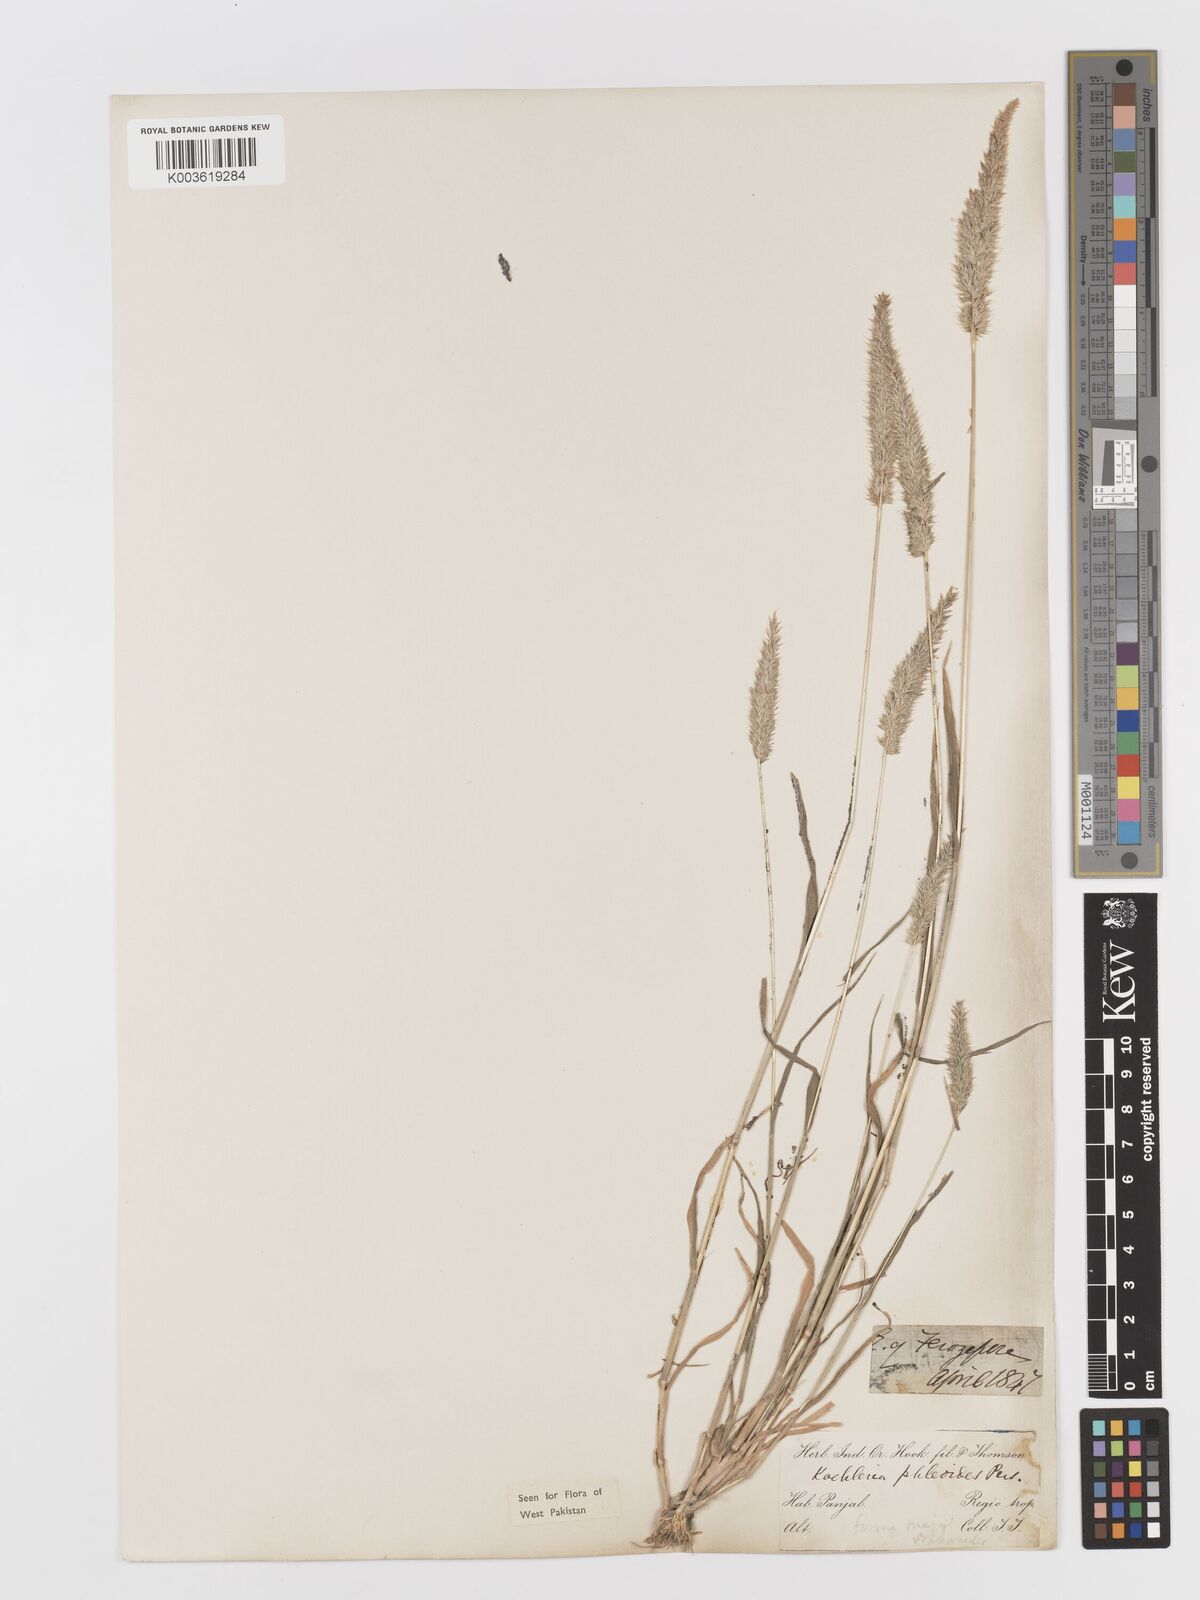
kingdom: Plantae
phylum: Tracheophyta
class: Liliopsida
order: Poales
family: Poaceae
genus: Rostraria
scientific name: Rostraria cristata
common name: Mediterranean hair-grass
